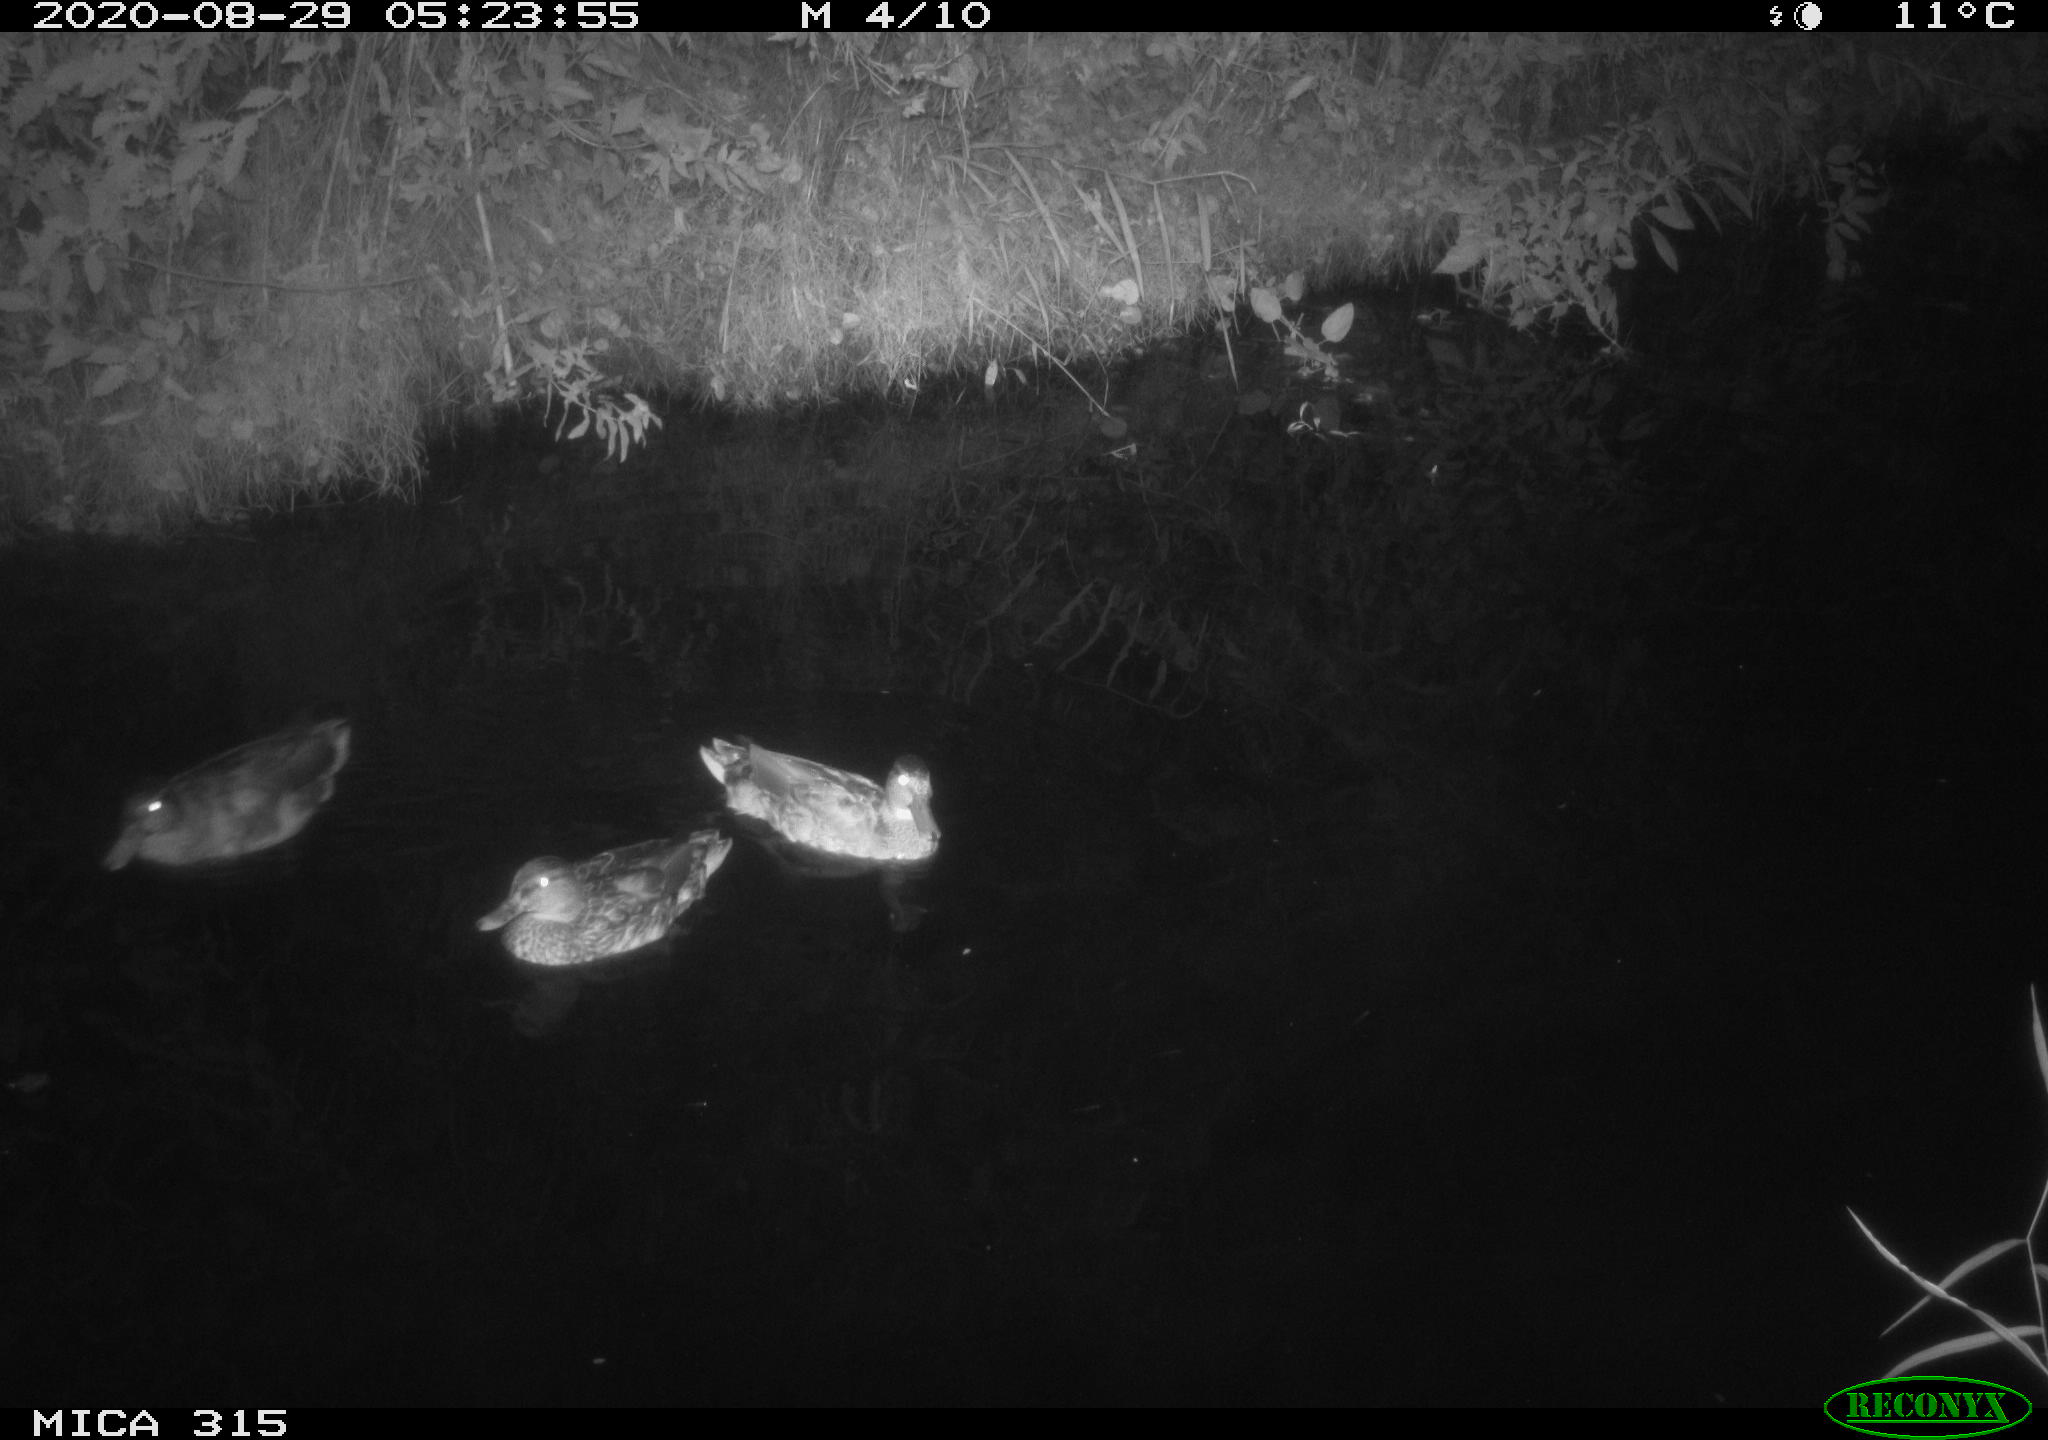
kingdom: Animalia
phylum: Chordata
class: Aves
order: Anseriformes
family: Anatidae
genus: Anas
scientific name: Anas platyrhynchos
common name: Mallard
